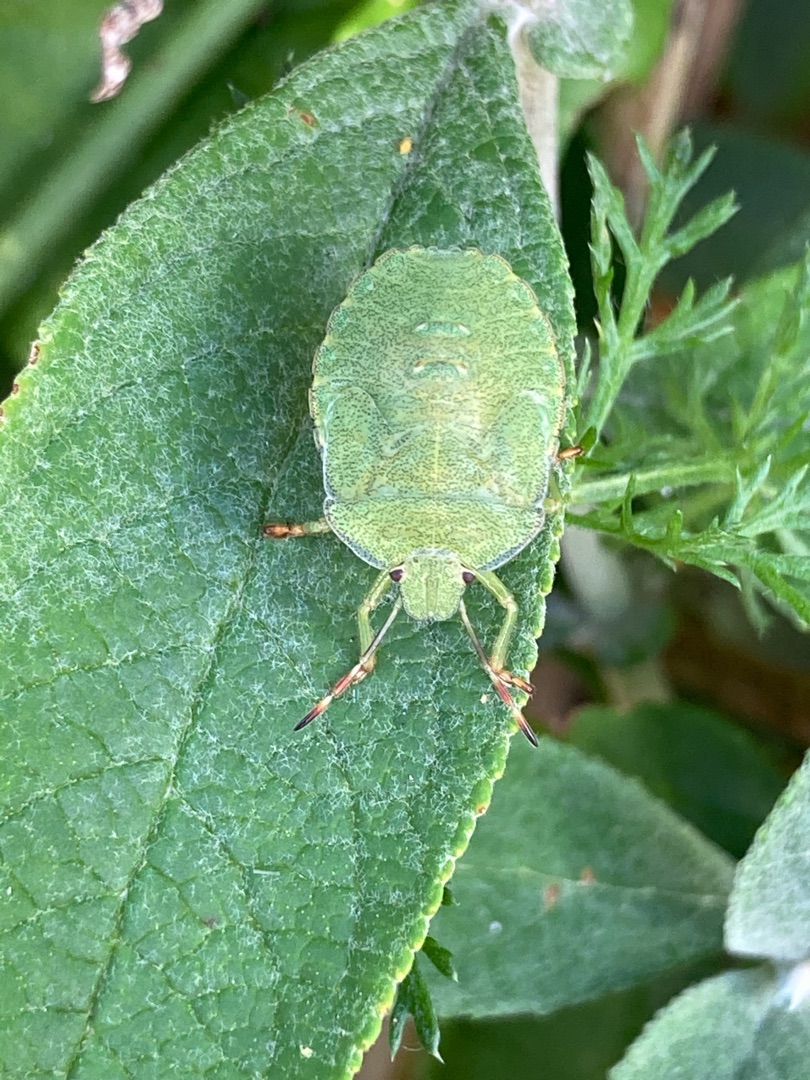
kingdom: Animalia
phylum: Arthropoda
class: Insecta
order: Hemiptera
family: Pentatomidae
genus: Palomena
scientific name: Palomena prasina
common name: Grøn bredtæge
